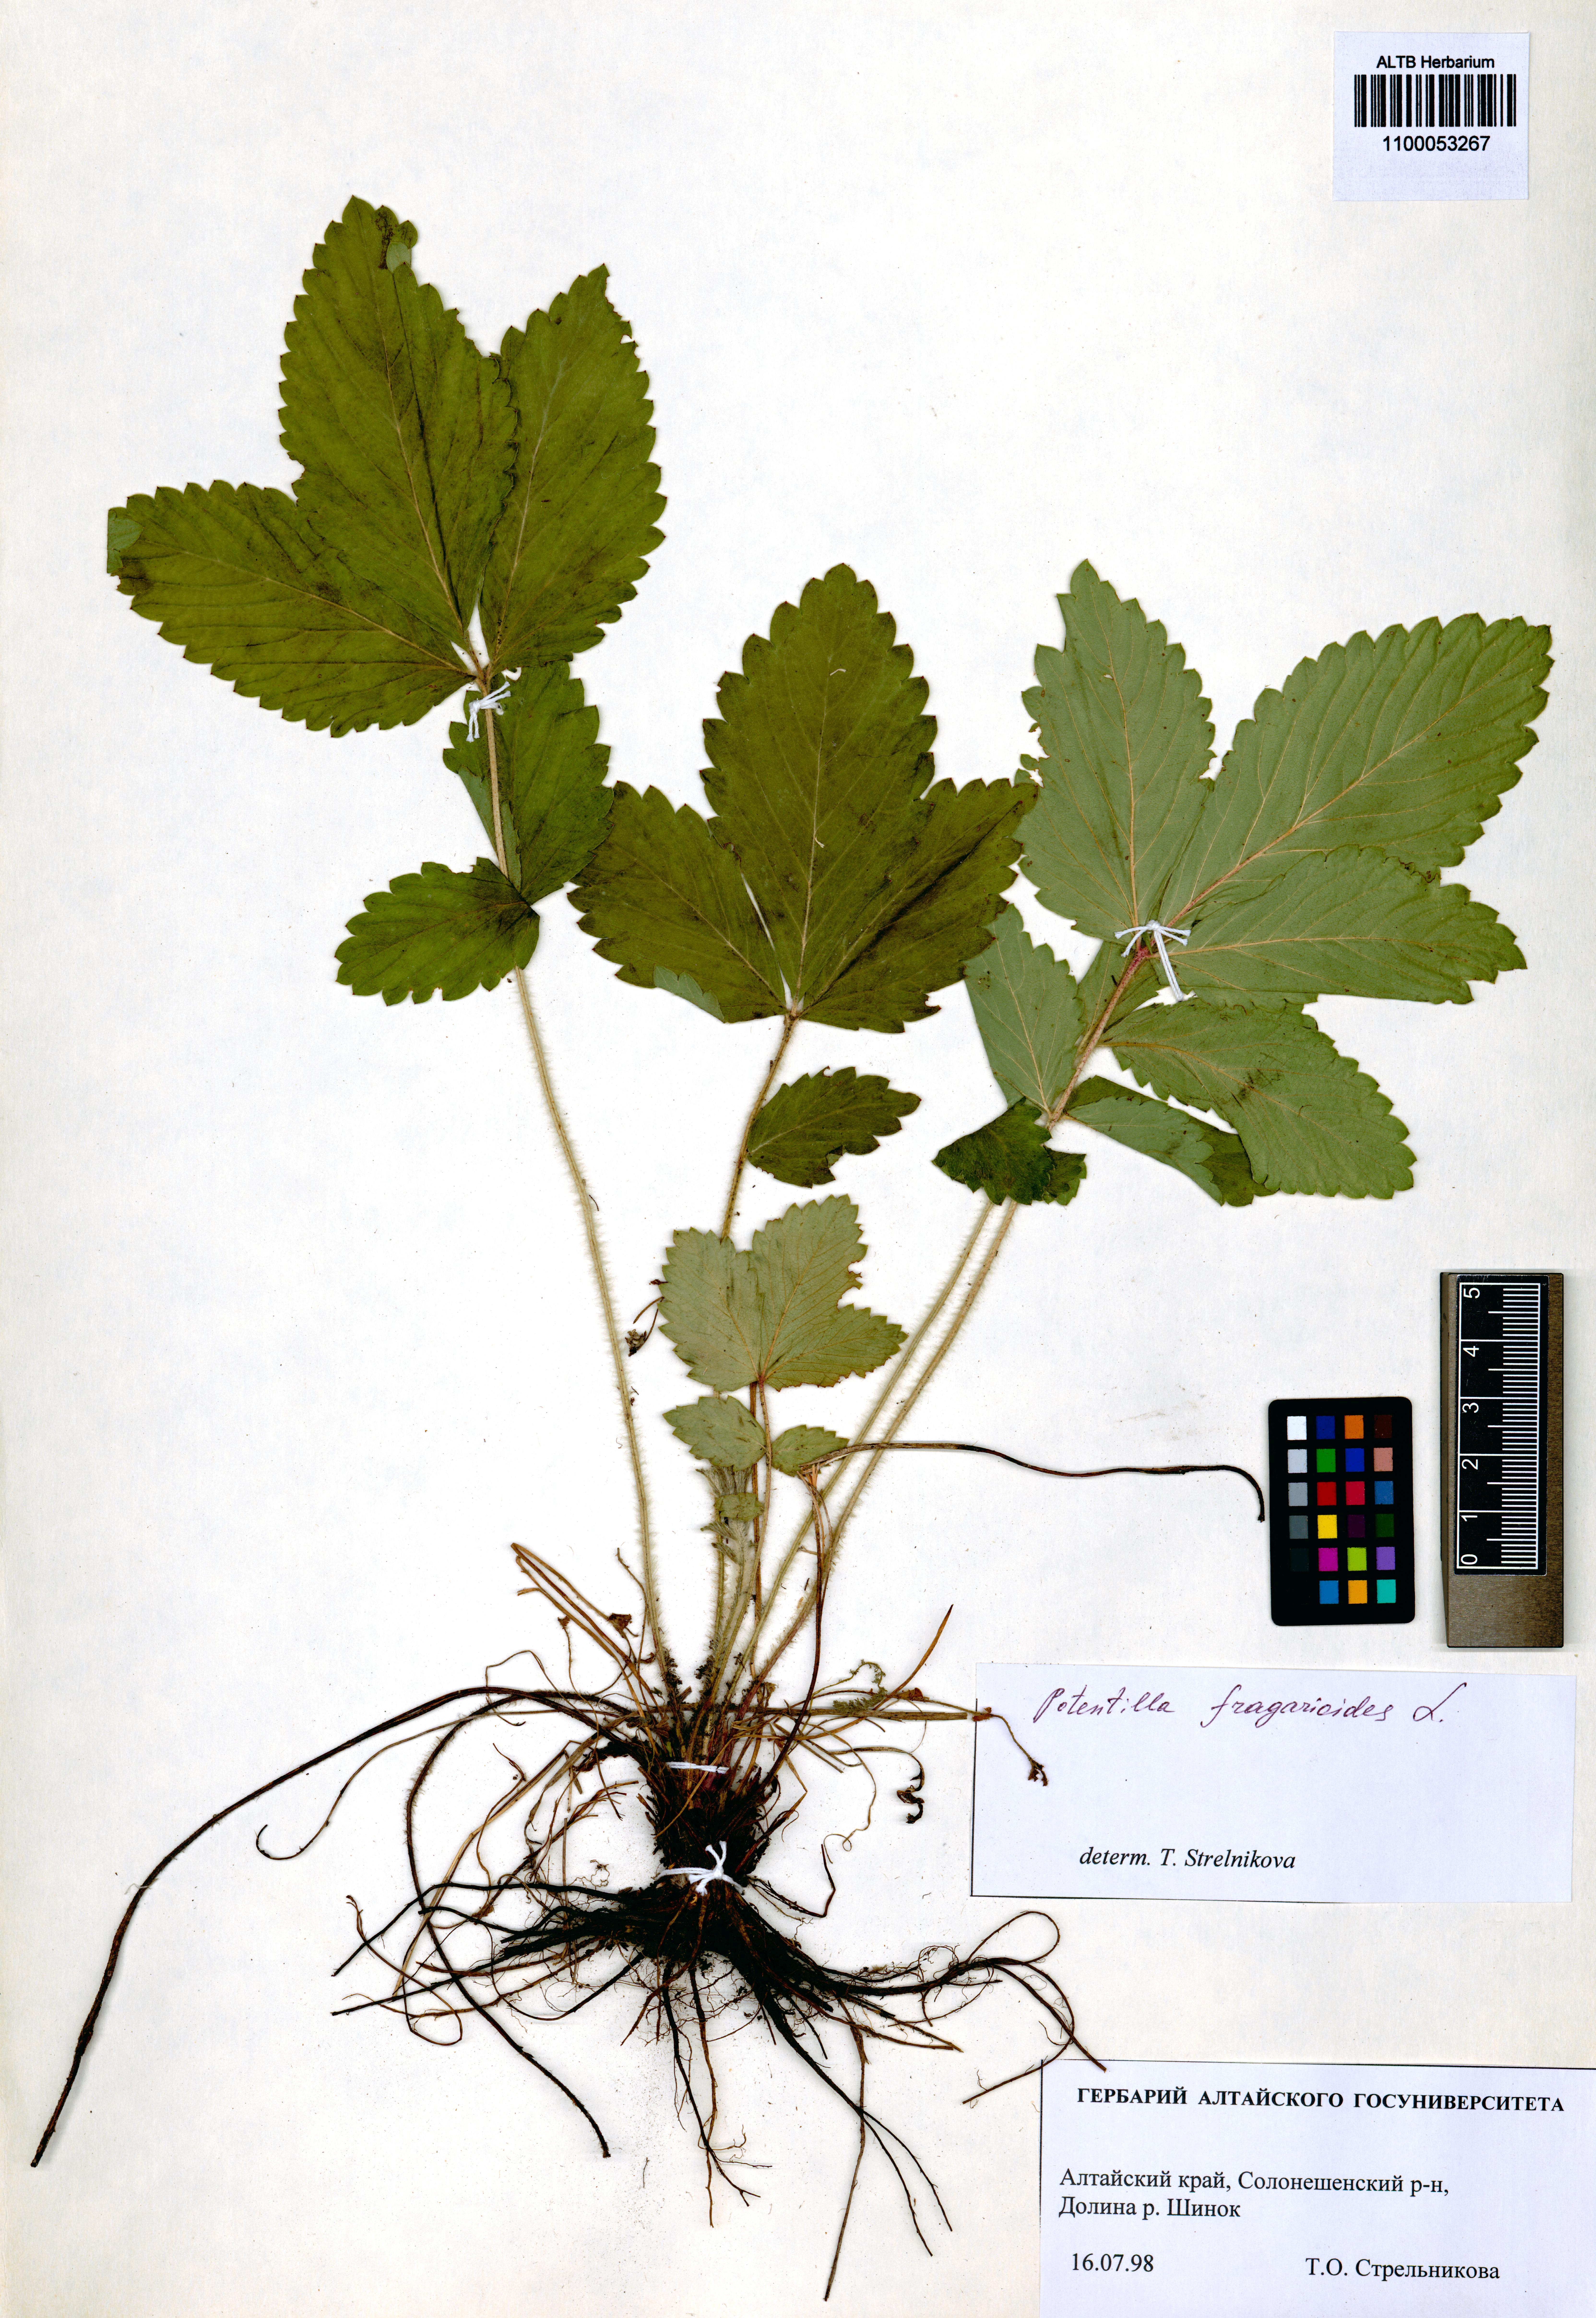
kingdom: Plantae
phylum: Tracheophyta
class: Magnoliopsida
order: Rosales
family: Rosaceae
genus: Potentilla
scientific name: Potentilla fragarioides
